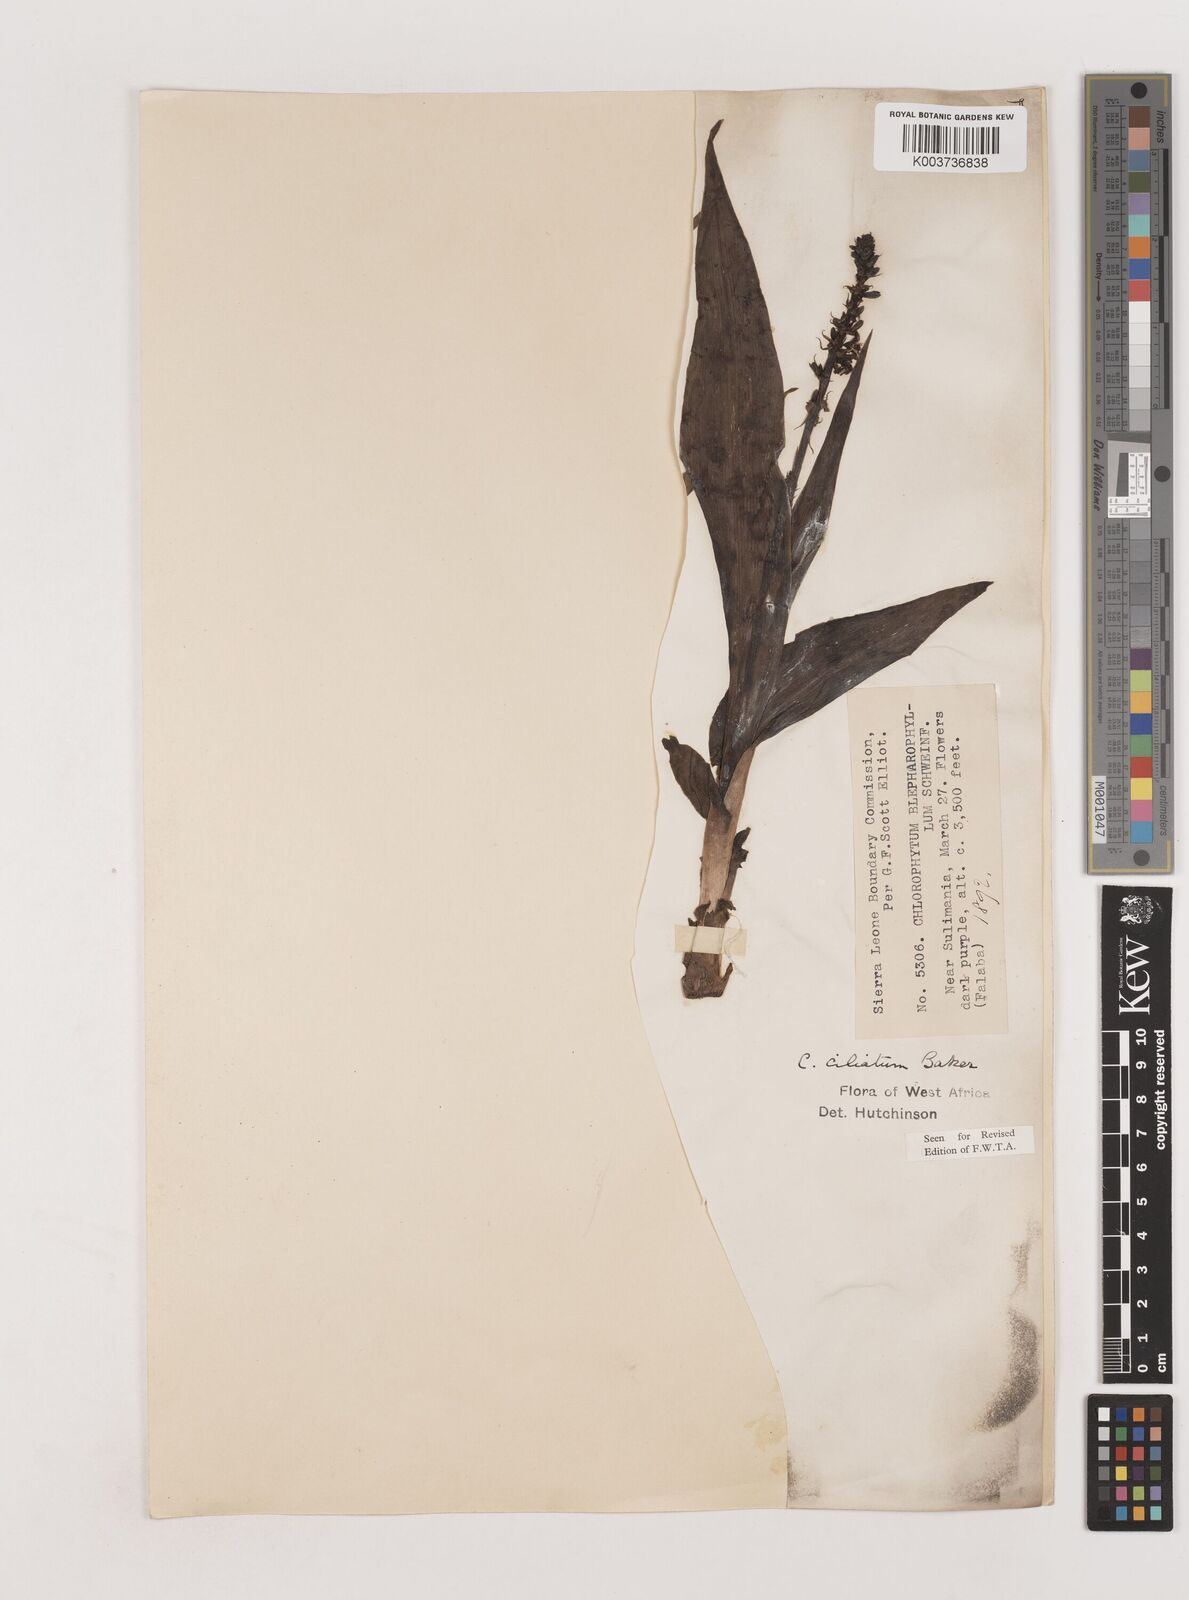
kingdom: Plantae
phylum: Tracheophyta
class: Liliopsida
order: Asparagales
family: Asparagaceae
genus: Chlorophytum
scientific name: Chlorophytum blepharophyllum
